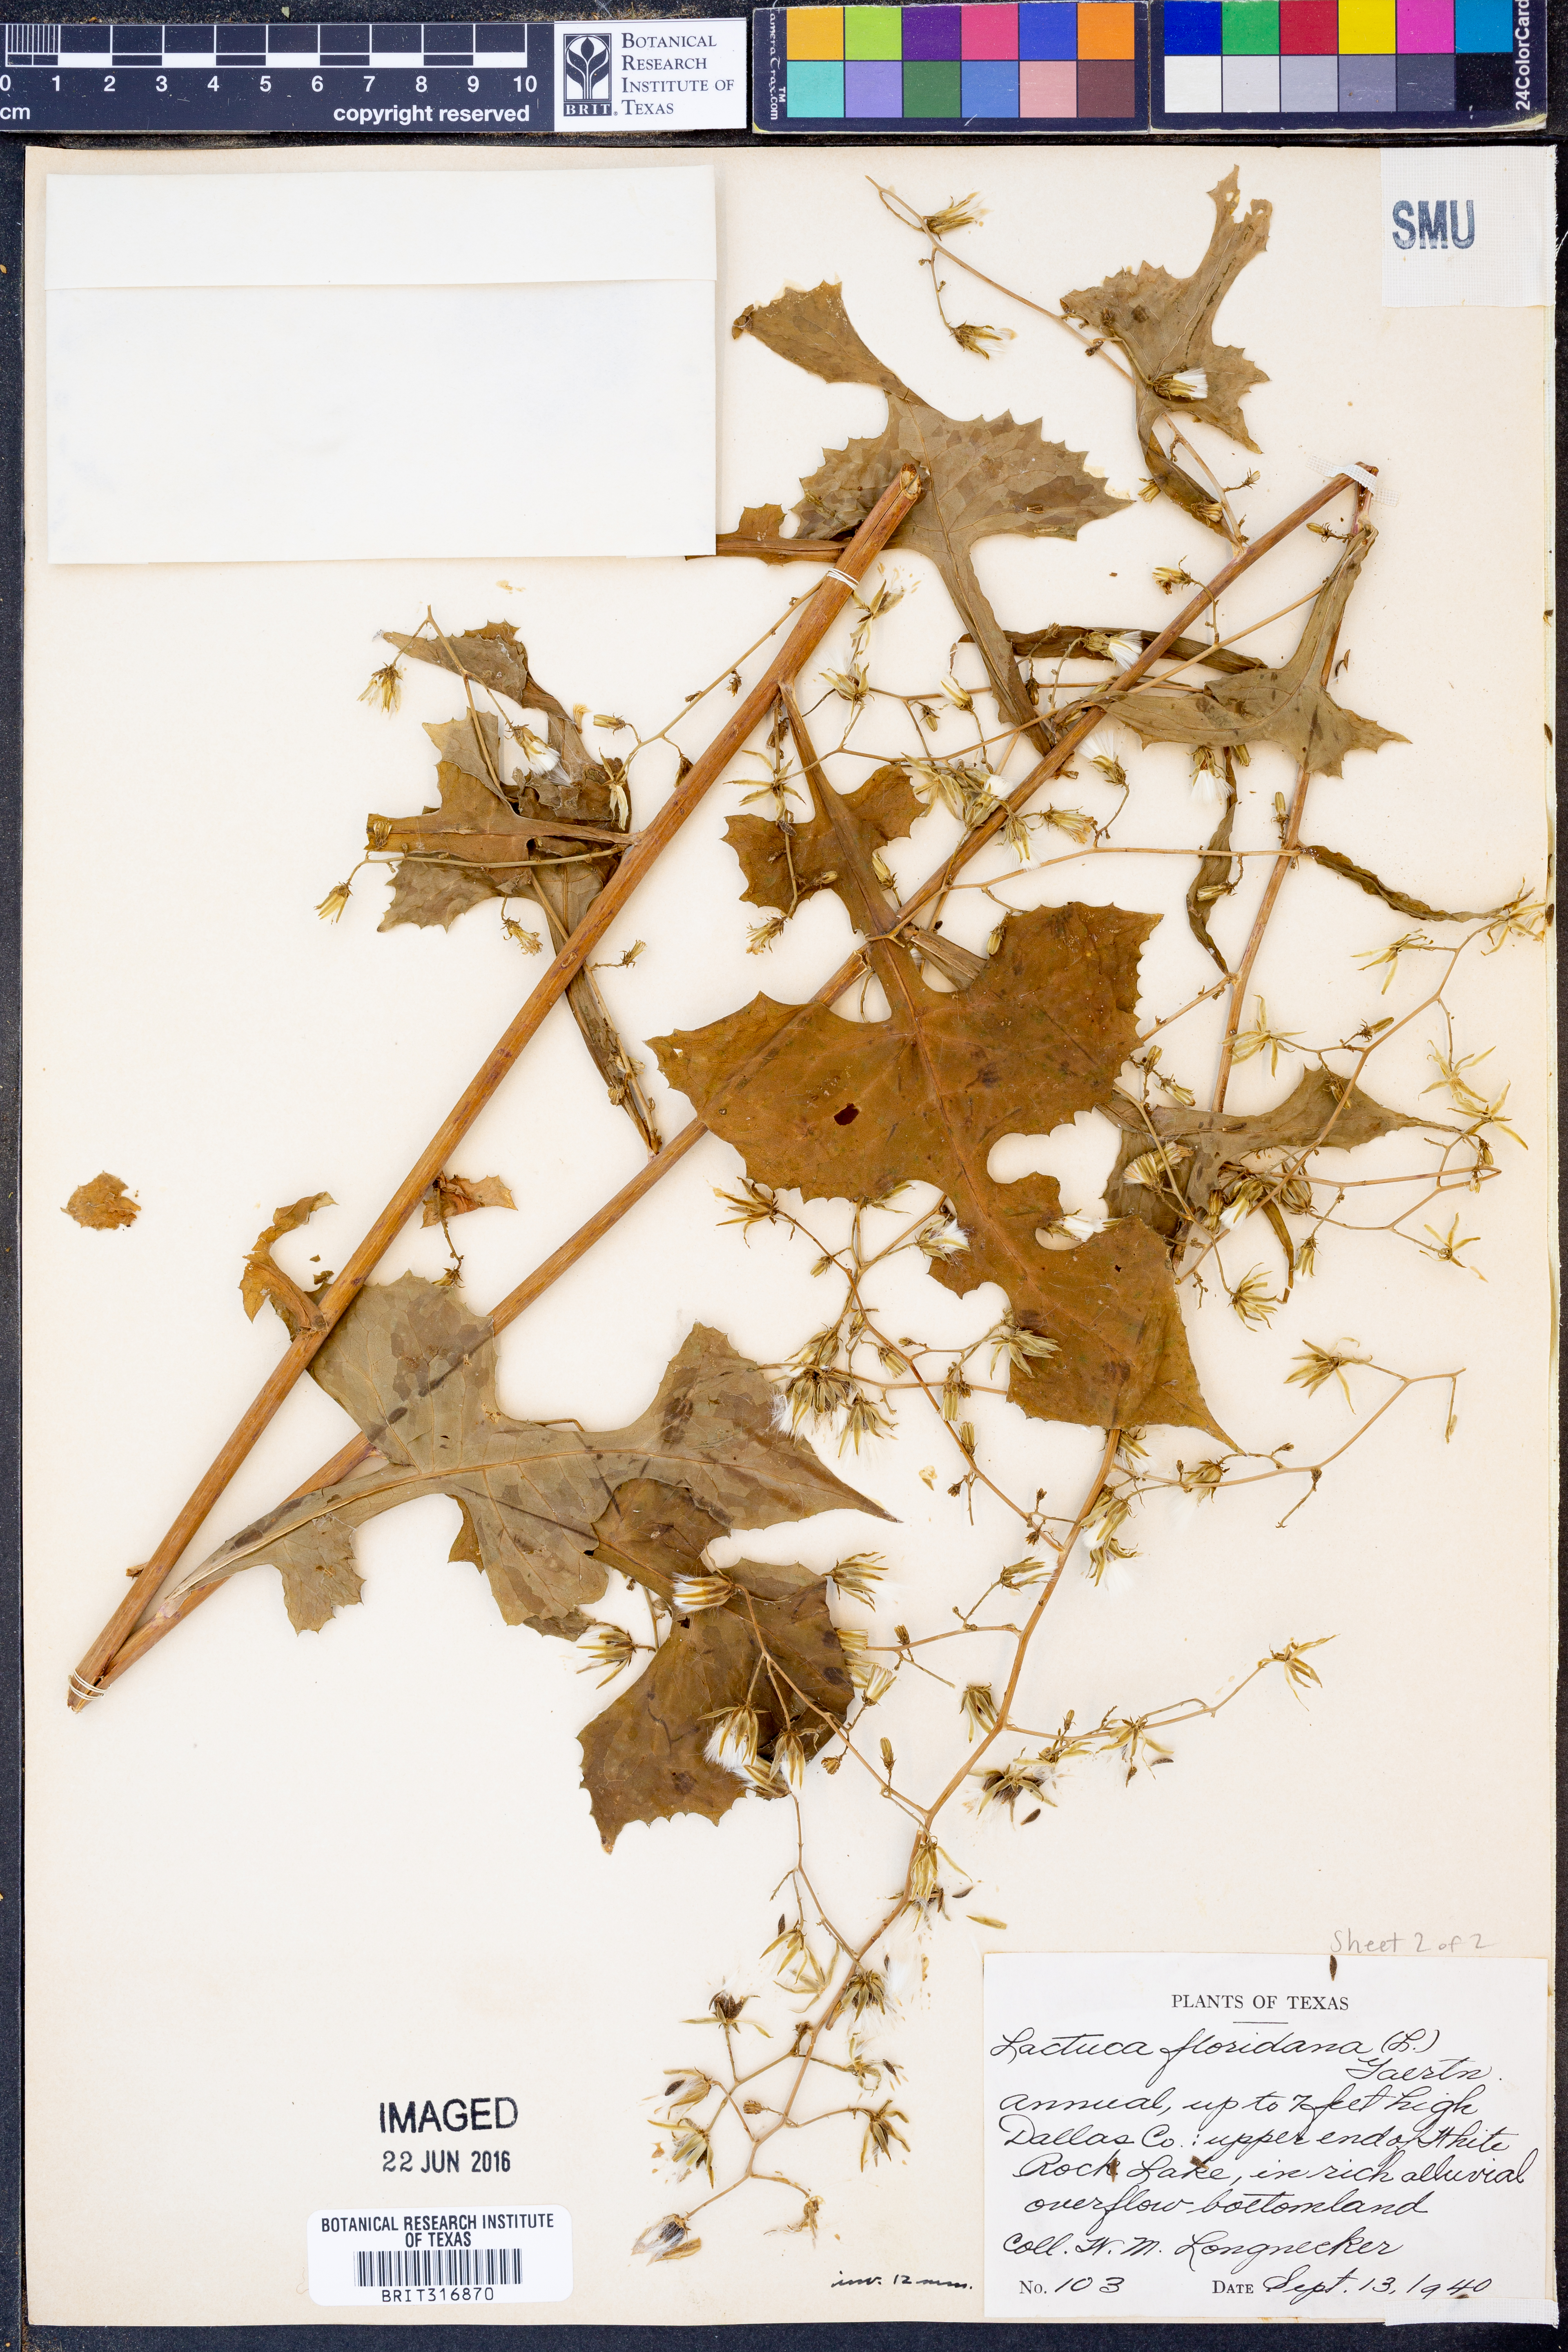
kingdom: Plantae
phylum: Tracheophyta
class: Magnoliopsida
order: Asterales
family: Asteraceae
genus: Lactuca
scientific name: Lactuca floridana
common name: Woodland lettuce
